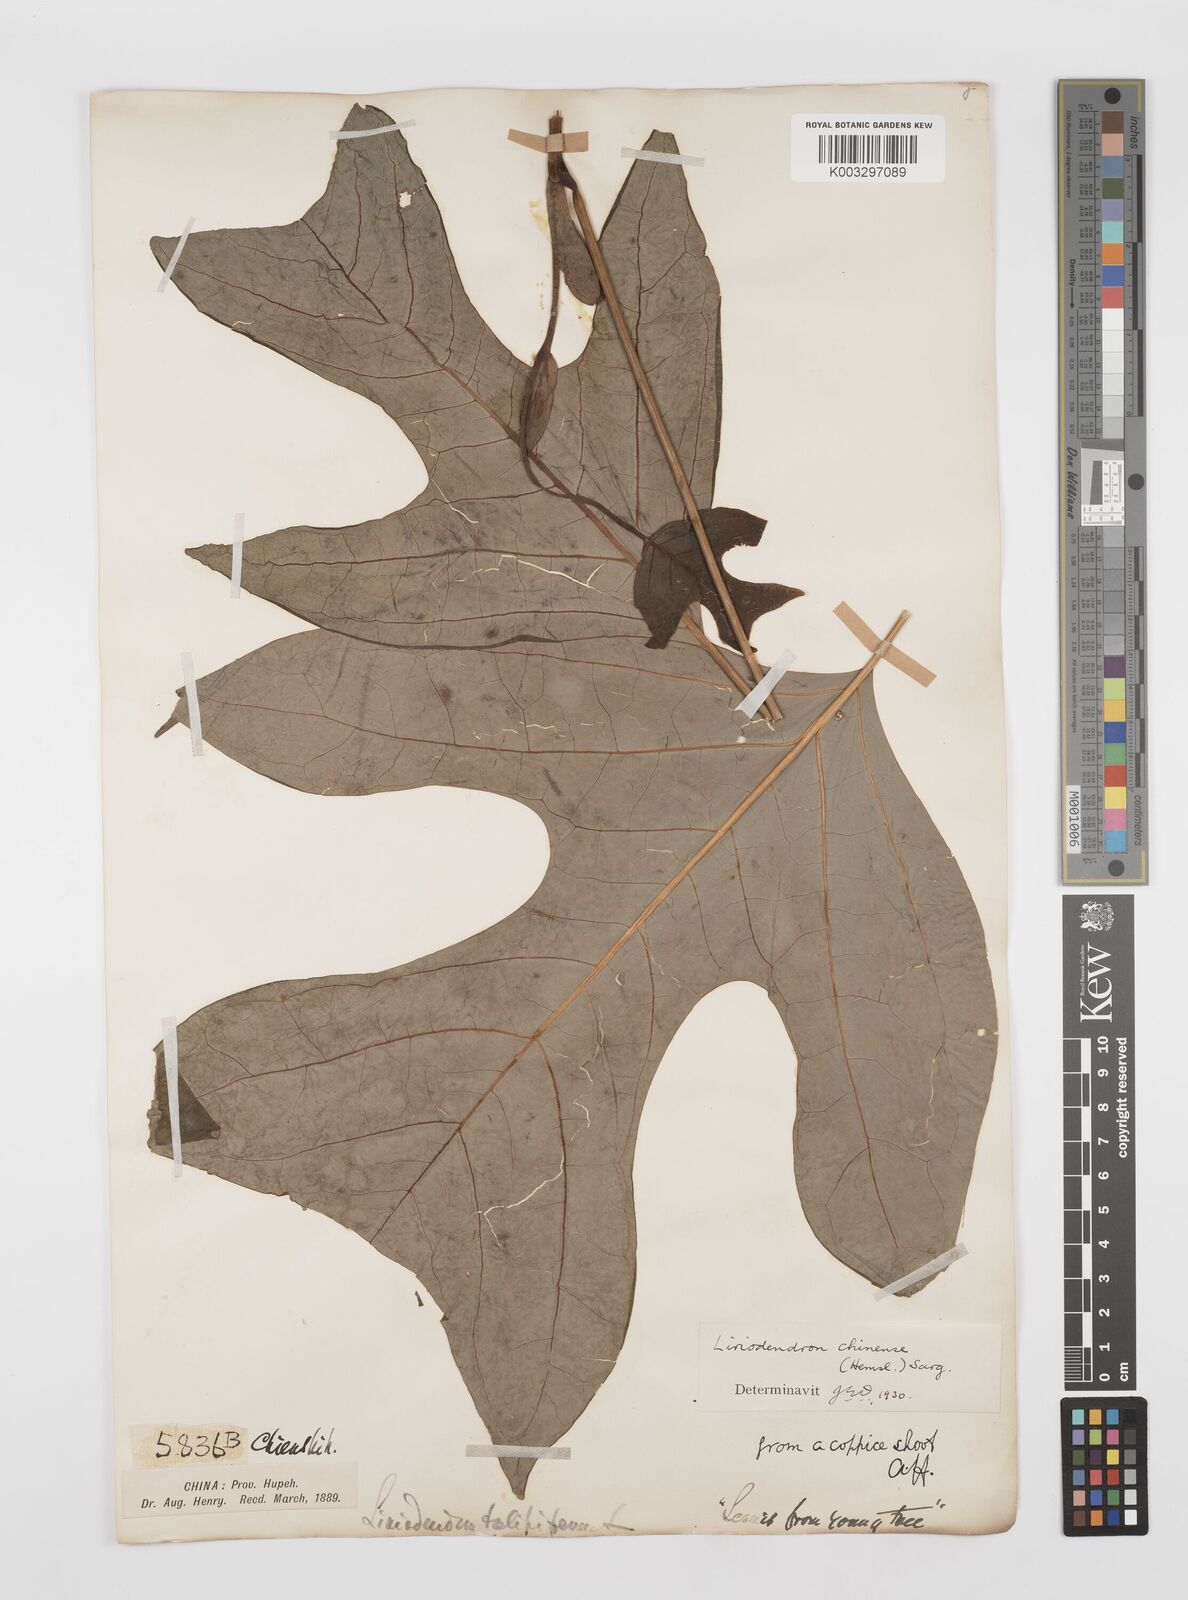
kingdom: Plantae
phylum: Tracheophyta
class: Magnoliopsida
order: Magnoliales
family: Magnoliaceae
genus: Liriodendron
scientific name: Liriodendron chinense
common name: Chinese tuliptree
